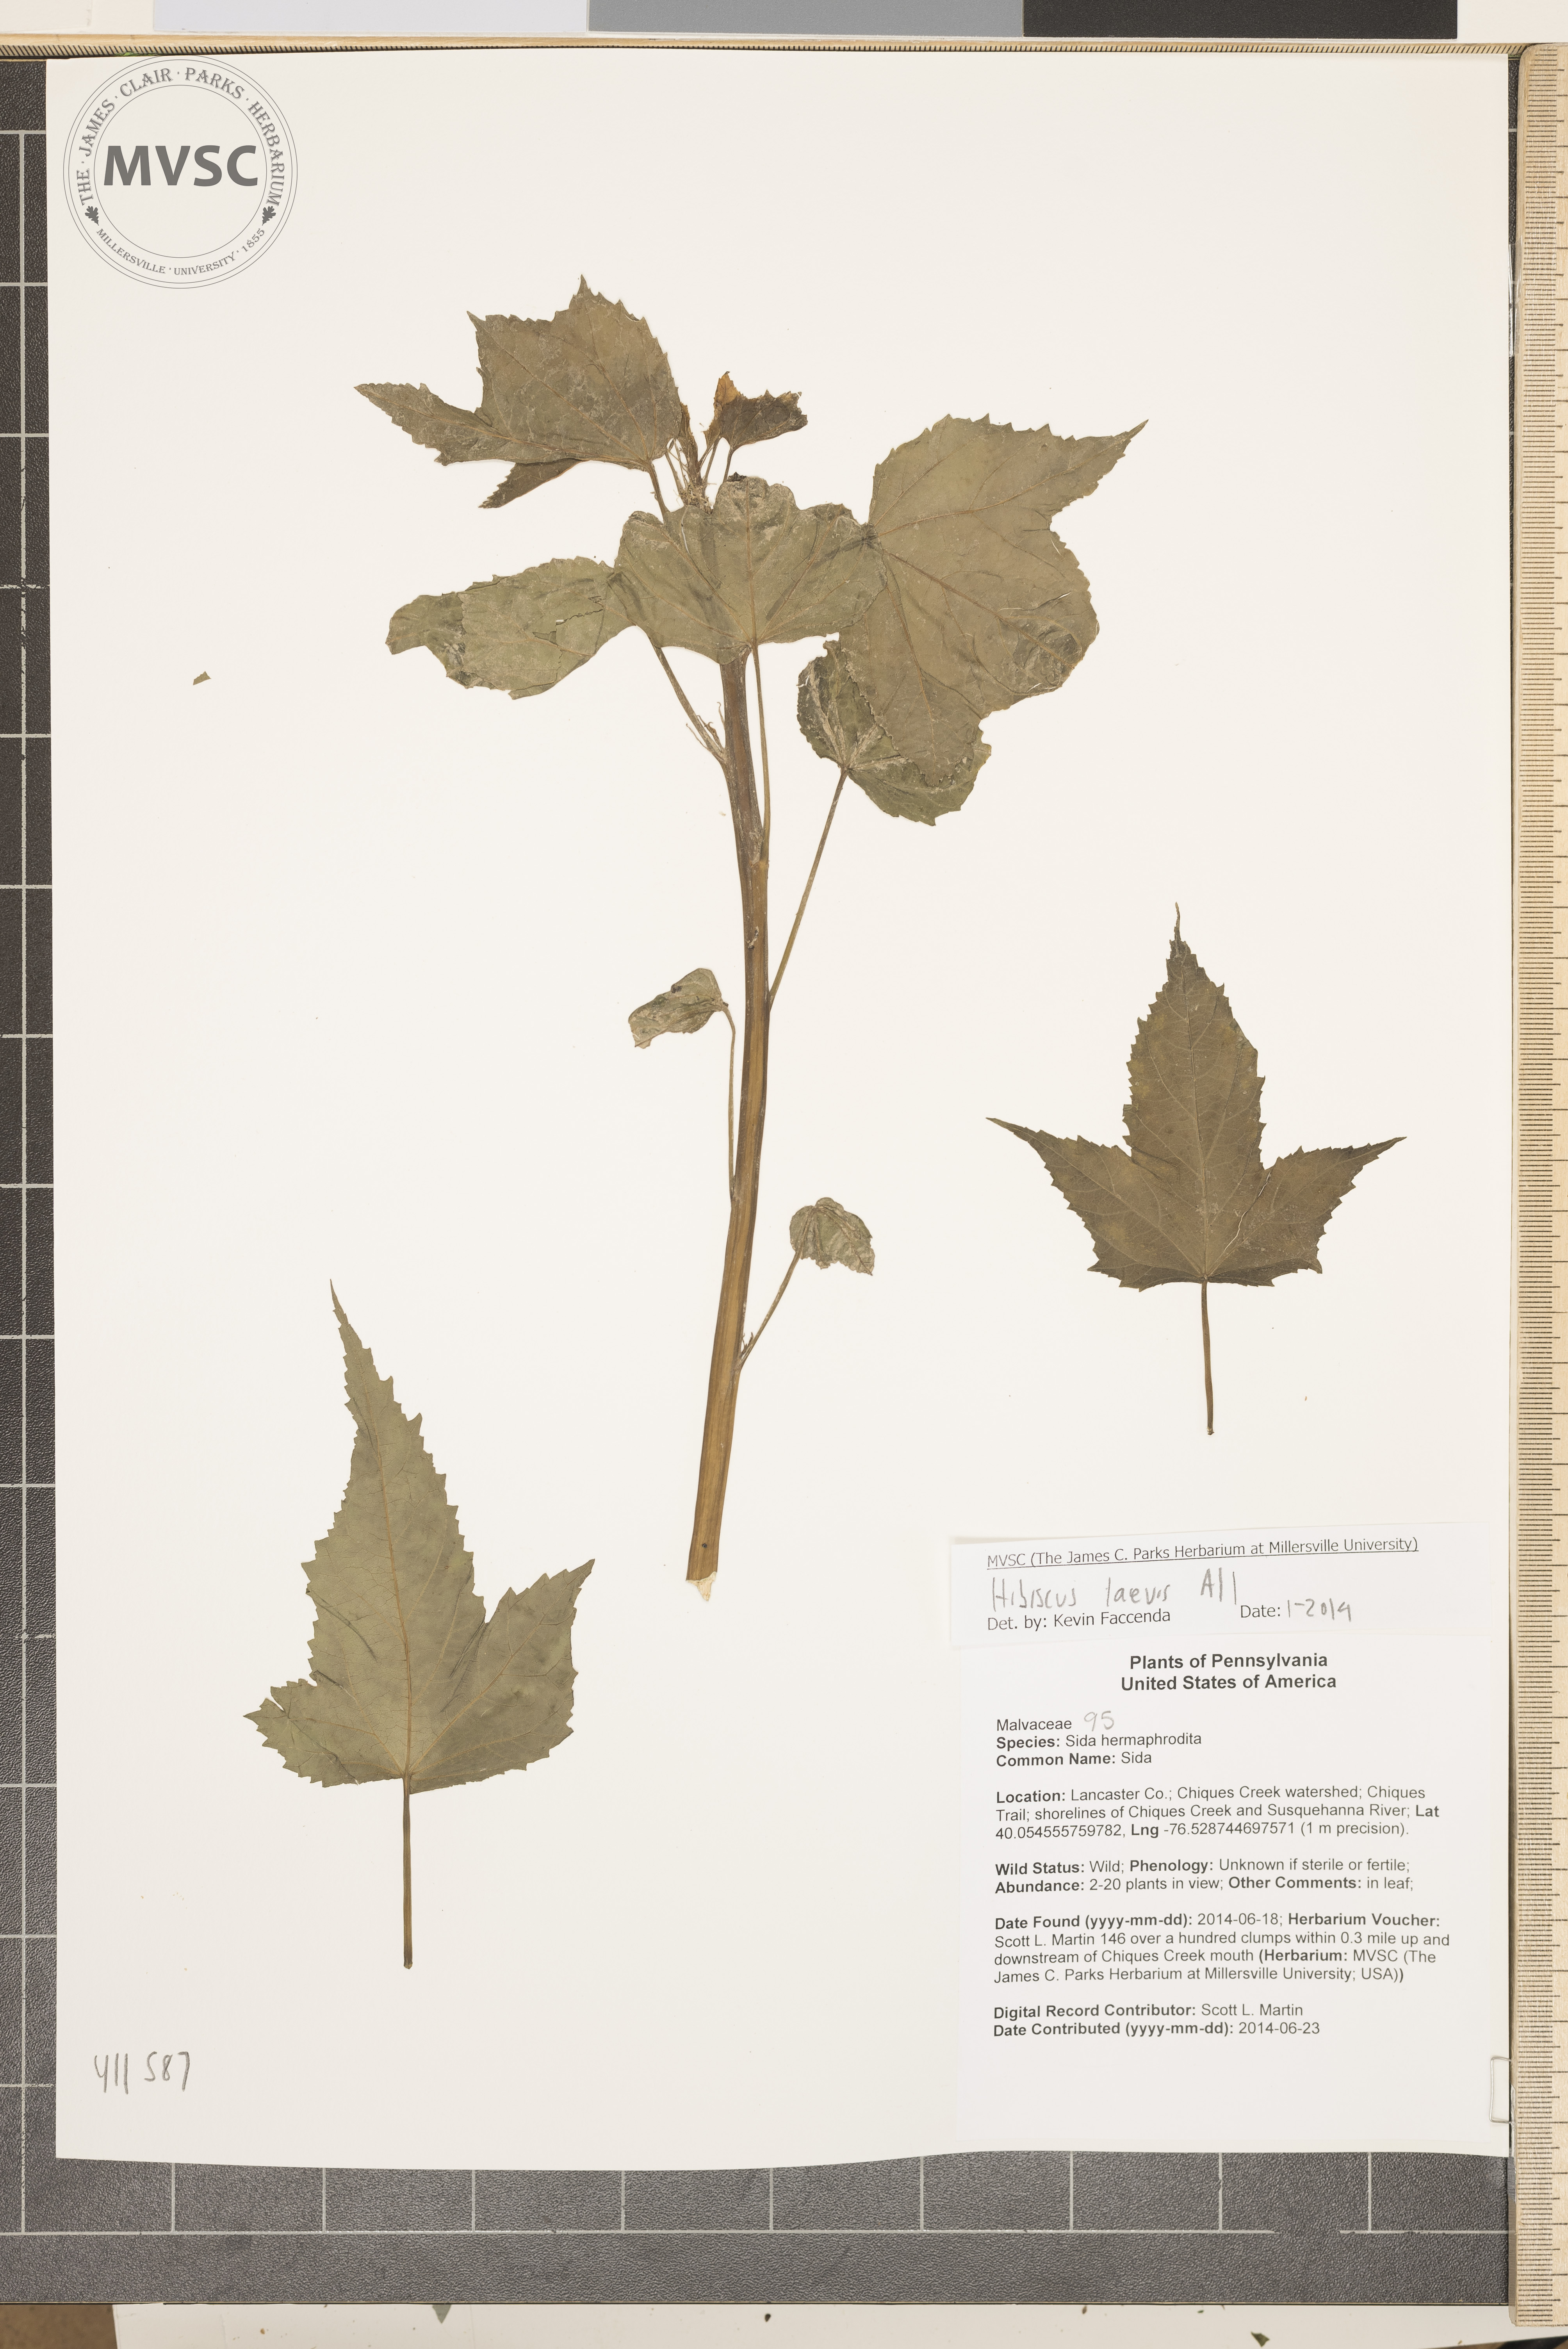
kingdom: Plantae
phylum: Tracheophyta
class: Magnoliopsida
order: Malvales
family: Malvaceae
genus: Hibiscus
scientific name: Hibiscus laevis
